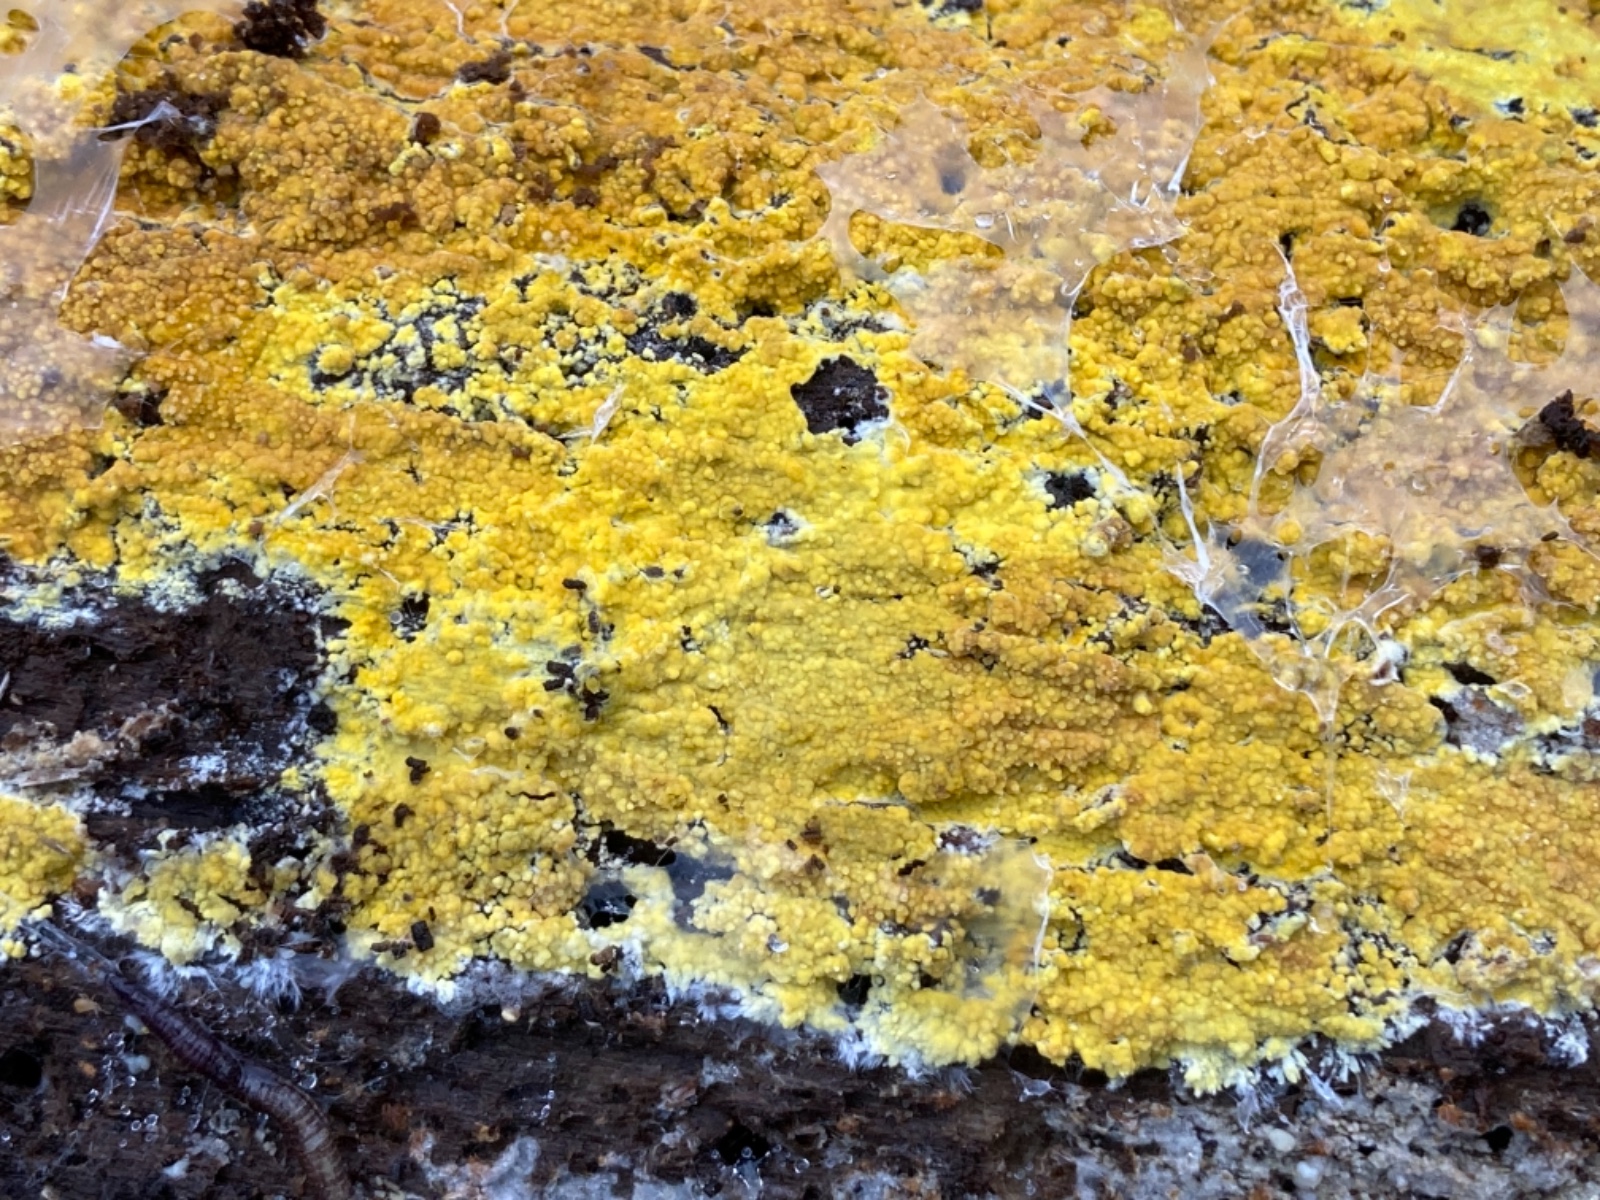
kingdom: Fungi
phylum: Basidiomycota
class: Agaricomycetes
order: Polyporales
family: Meruliaceae
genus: Phlebiodontia
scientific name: Phlebiodontia subochracea
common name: svovl-åresvamp
